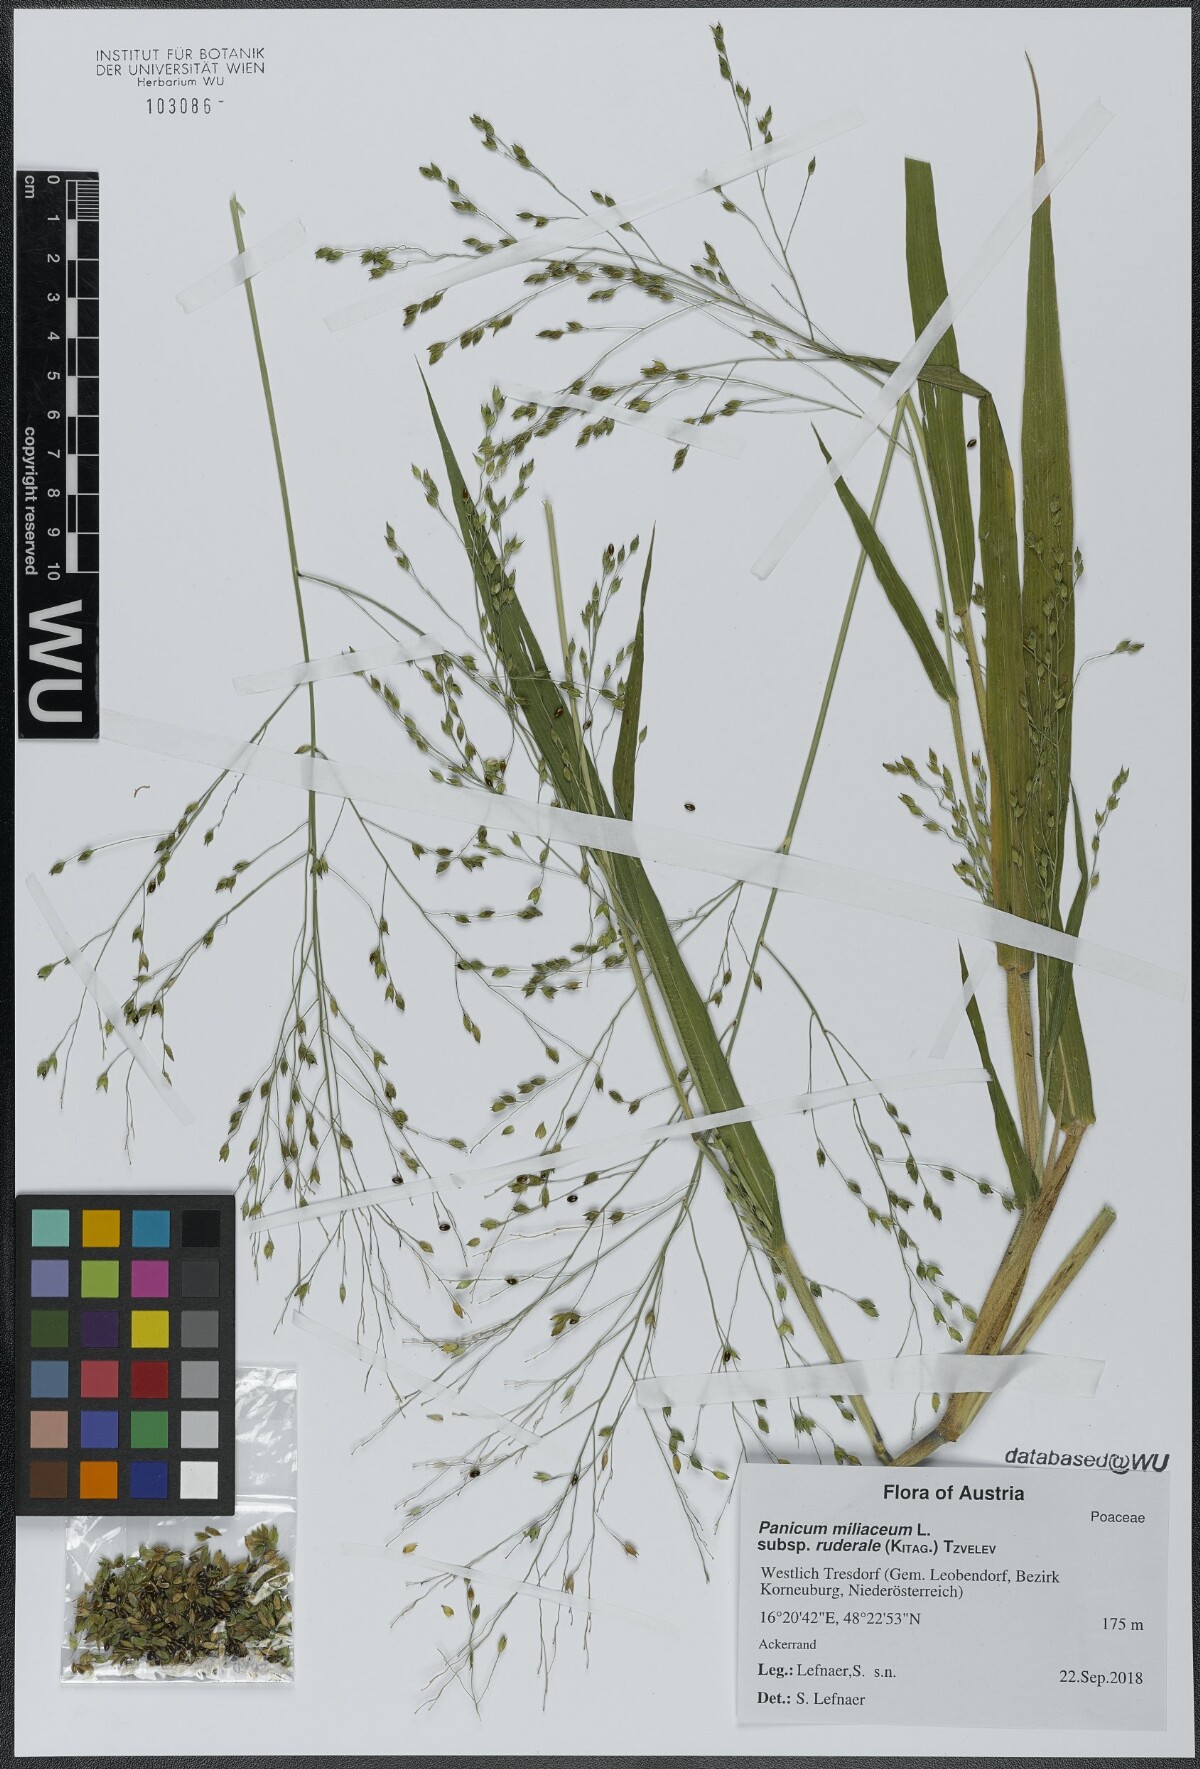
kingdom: Plantae
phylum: Tracheophyta
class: Liliopsida
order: Poales
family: Poaceae
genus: Panicum
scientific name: Panicum miliaceum
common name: Common millet
